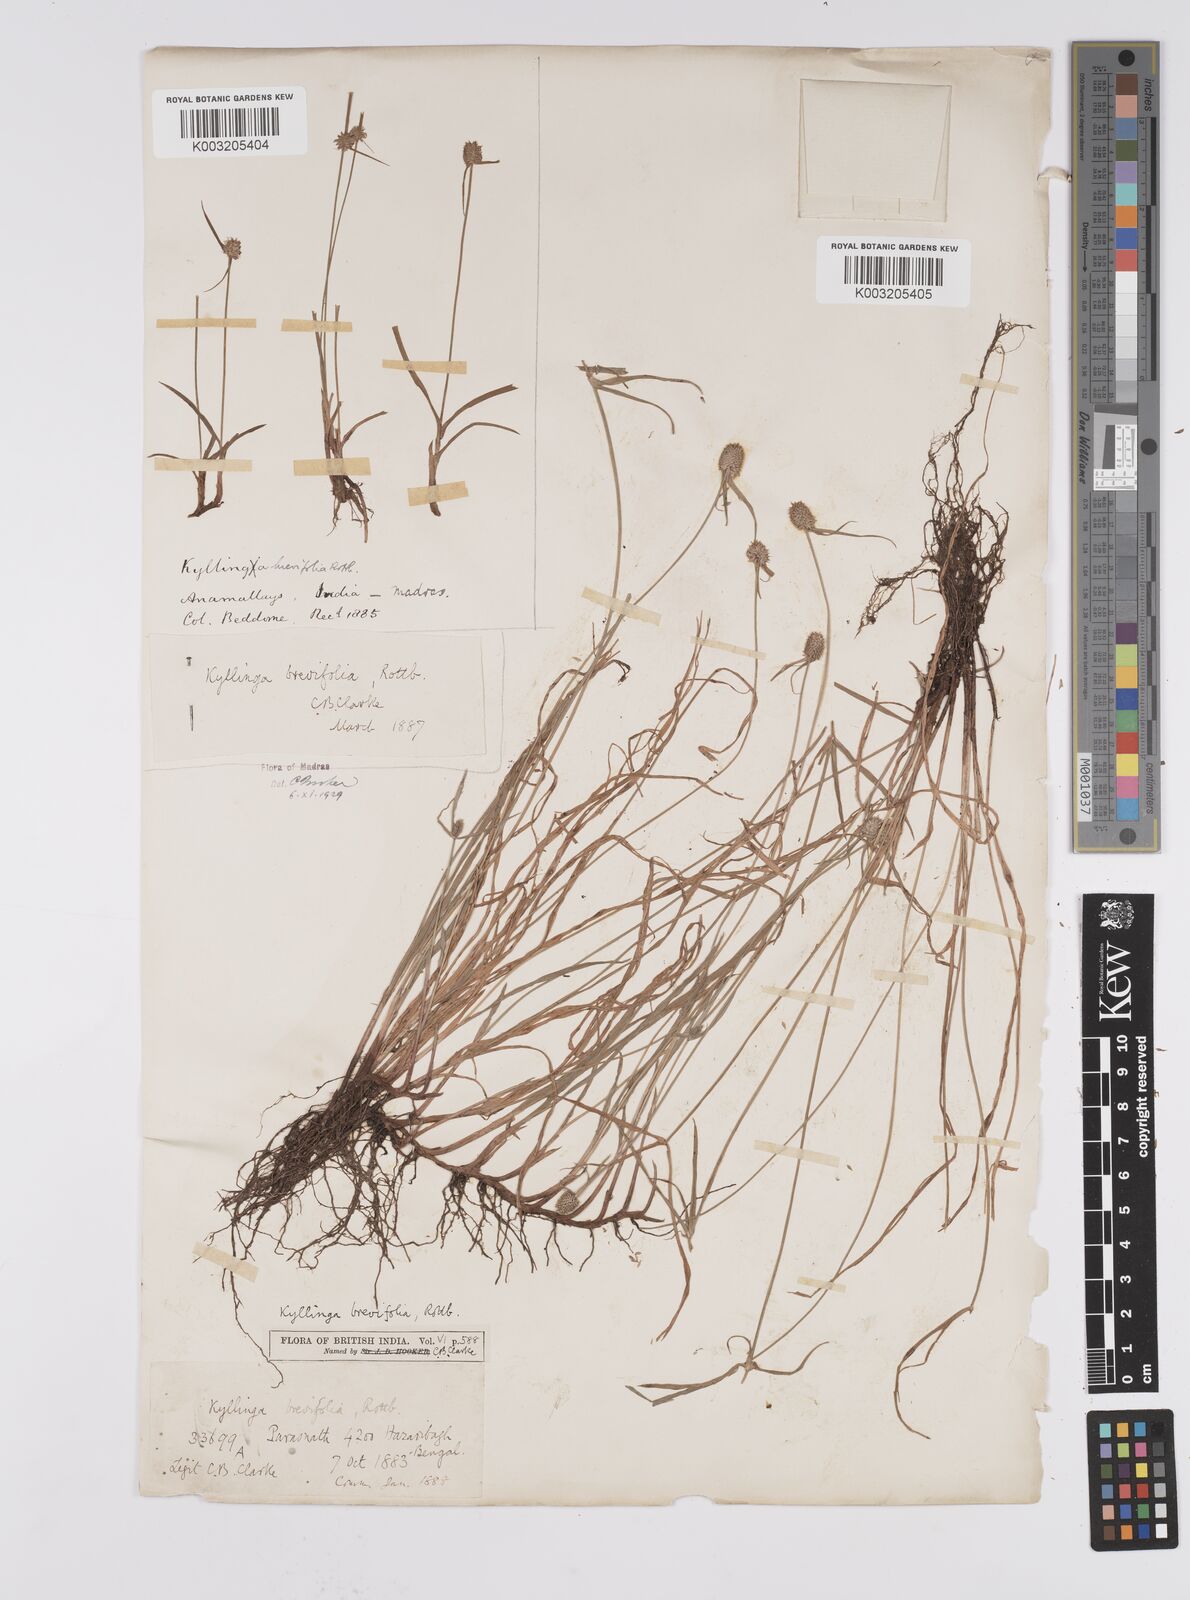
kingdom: Plantae
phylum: Tracheophyta
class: Liliopsida
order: Poales
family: Cyperaceae
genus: Cyperus
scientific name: Cyperus brevifolius
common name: Globe kyllinga
